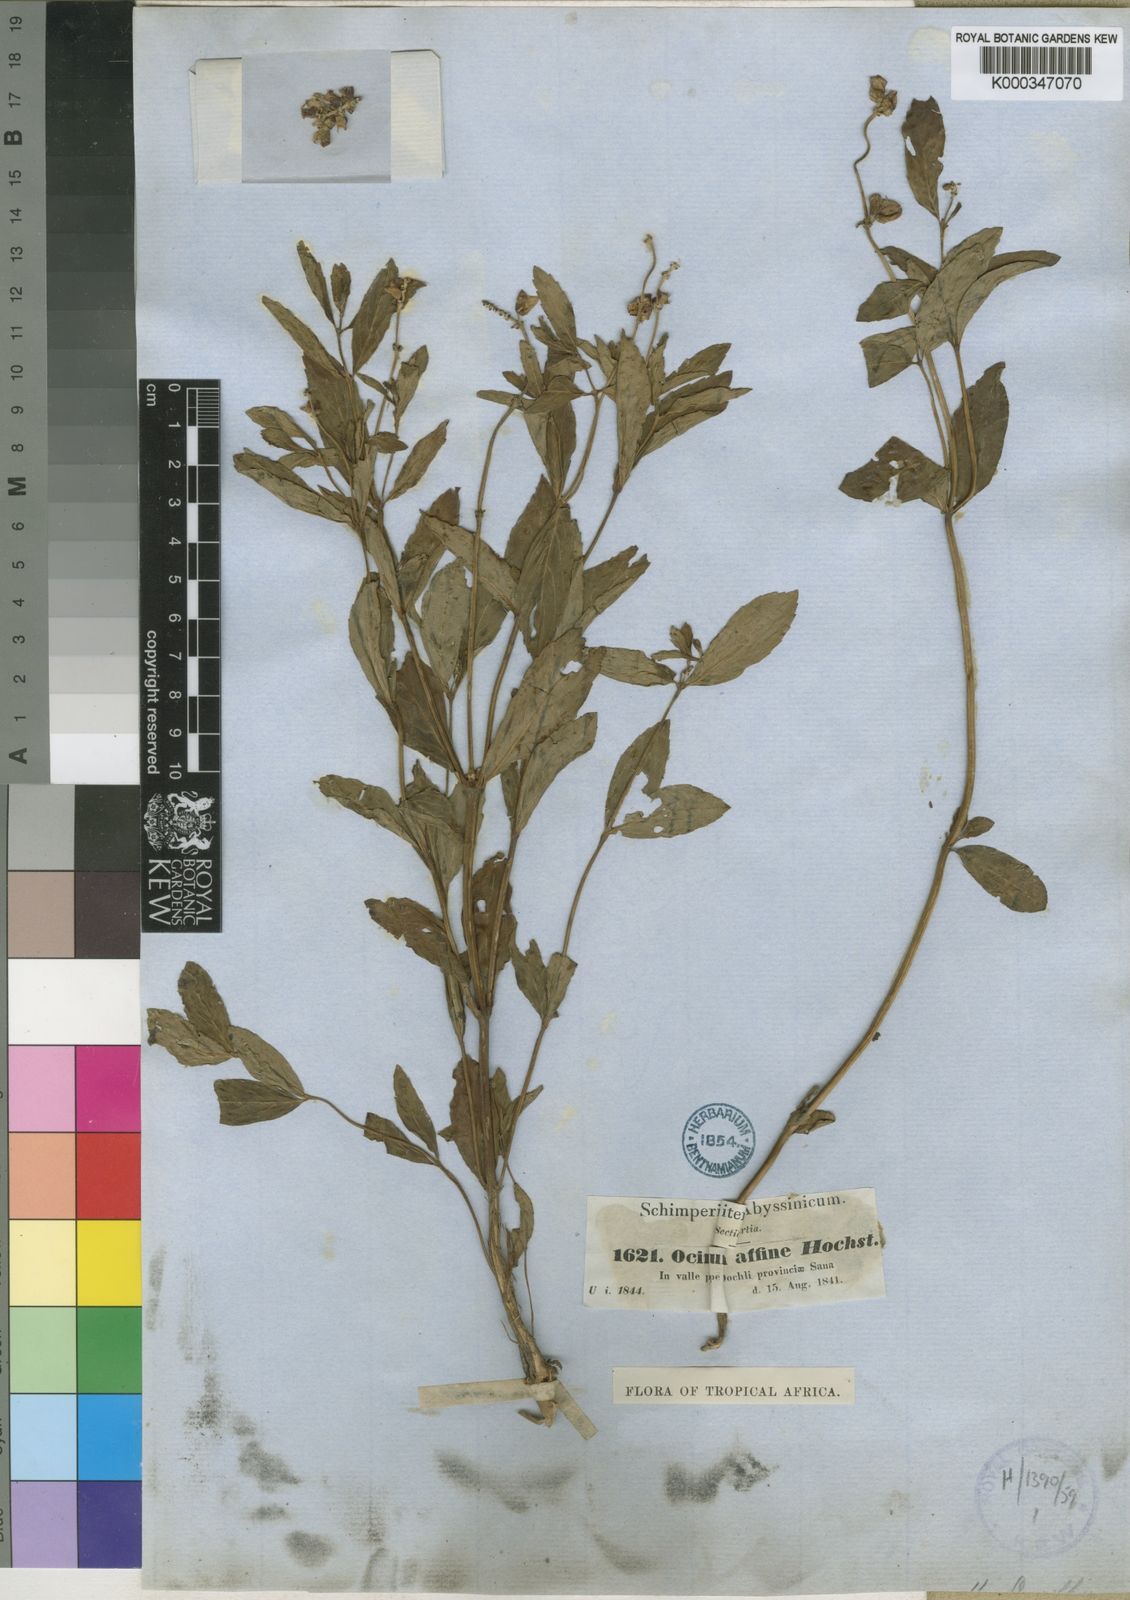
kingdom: Plantae
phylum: Tracheophyta
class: Magnoliopsida
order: Lamiales
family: Lamiaceae
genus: Ocimum
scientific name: Ocimum obovatum
